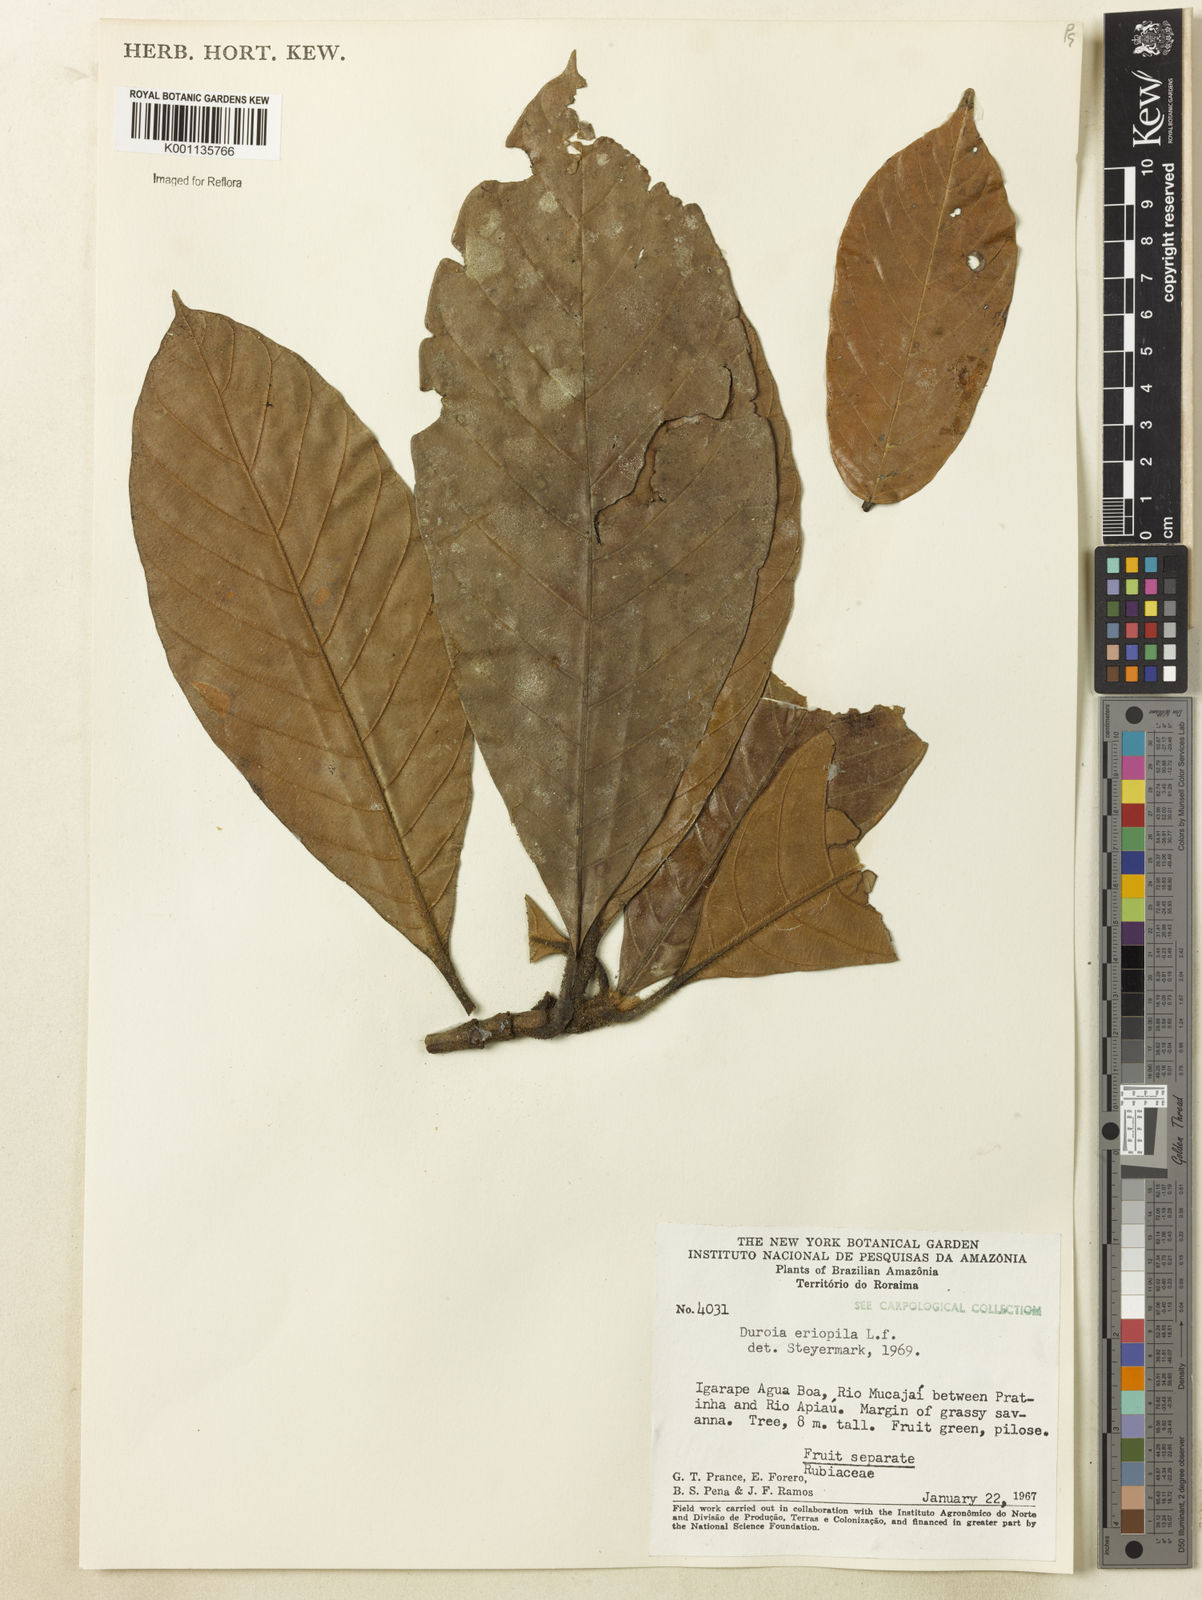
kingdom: Plantae
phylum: Tracheophyta
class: Magnoliopsida
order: Gentianales
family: Rubiaceae
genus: Duroia
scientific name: Duroia eriopila
